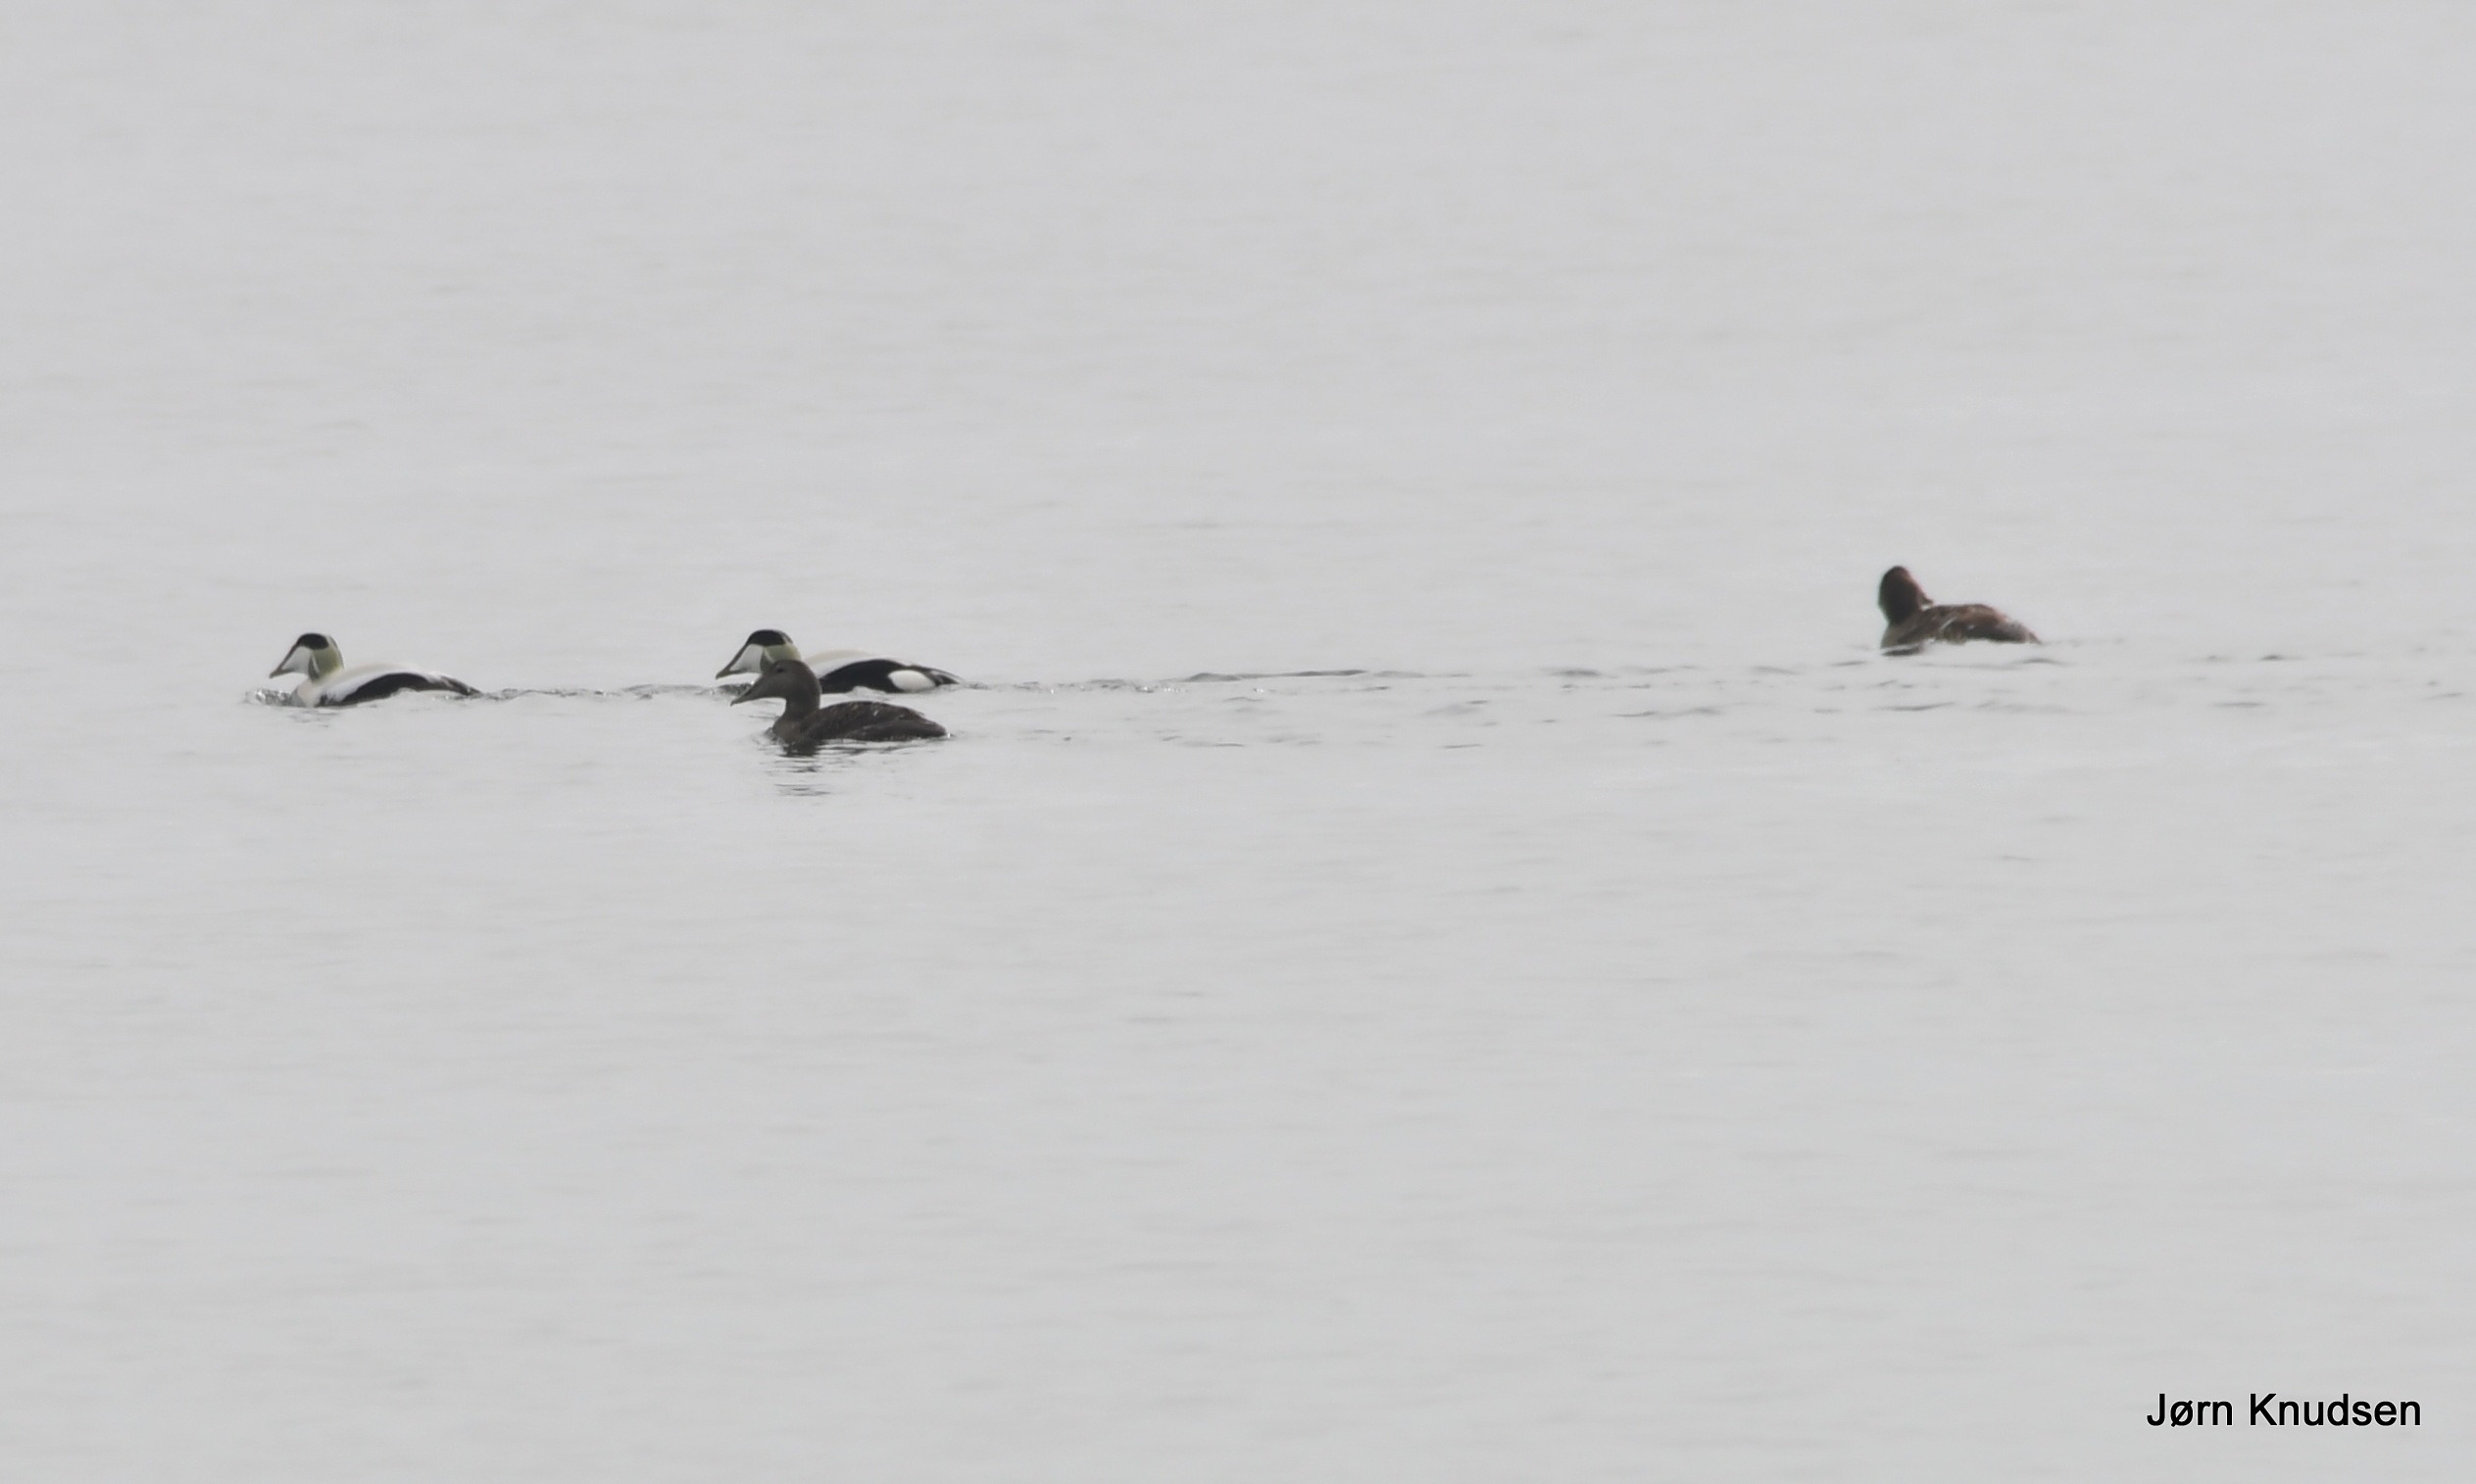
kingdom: Animalia
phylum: Chordata
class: Aves
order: Anseriformes
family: Anatidae
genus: Somateria
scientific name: Somateria mollissima
